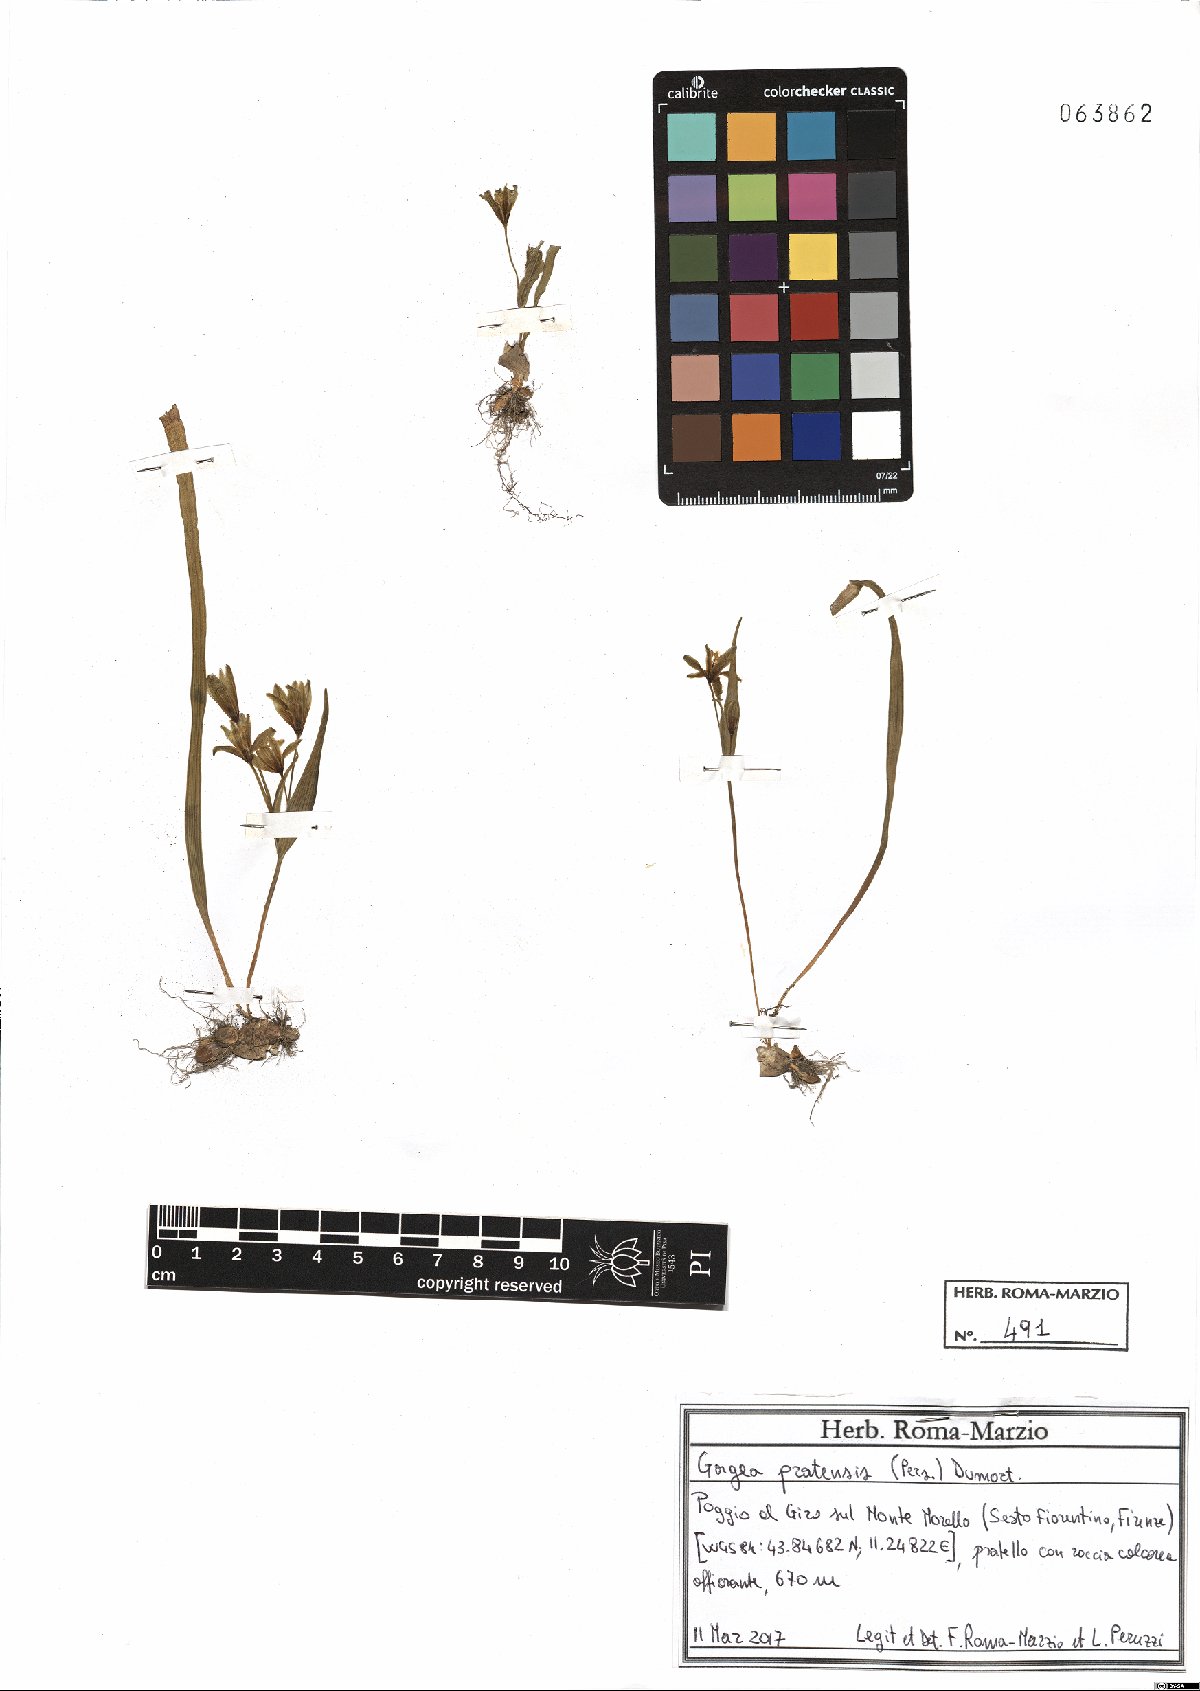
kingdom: Plantae
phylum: Tracheophyta
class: Liliopsida
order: Liliales
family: Liliaceae
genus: Gagea
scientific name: Gagea pratensis
